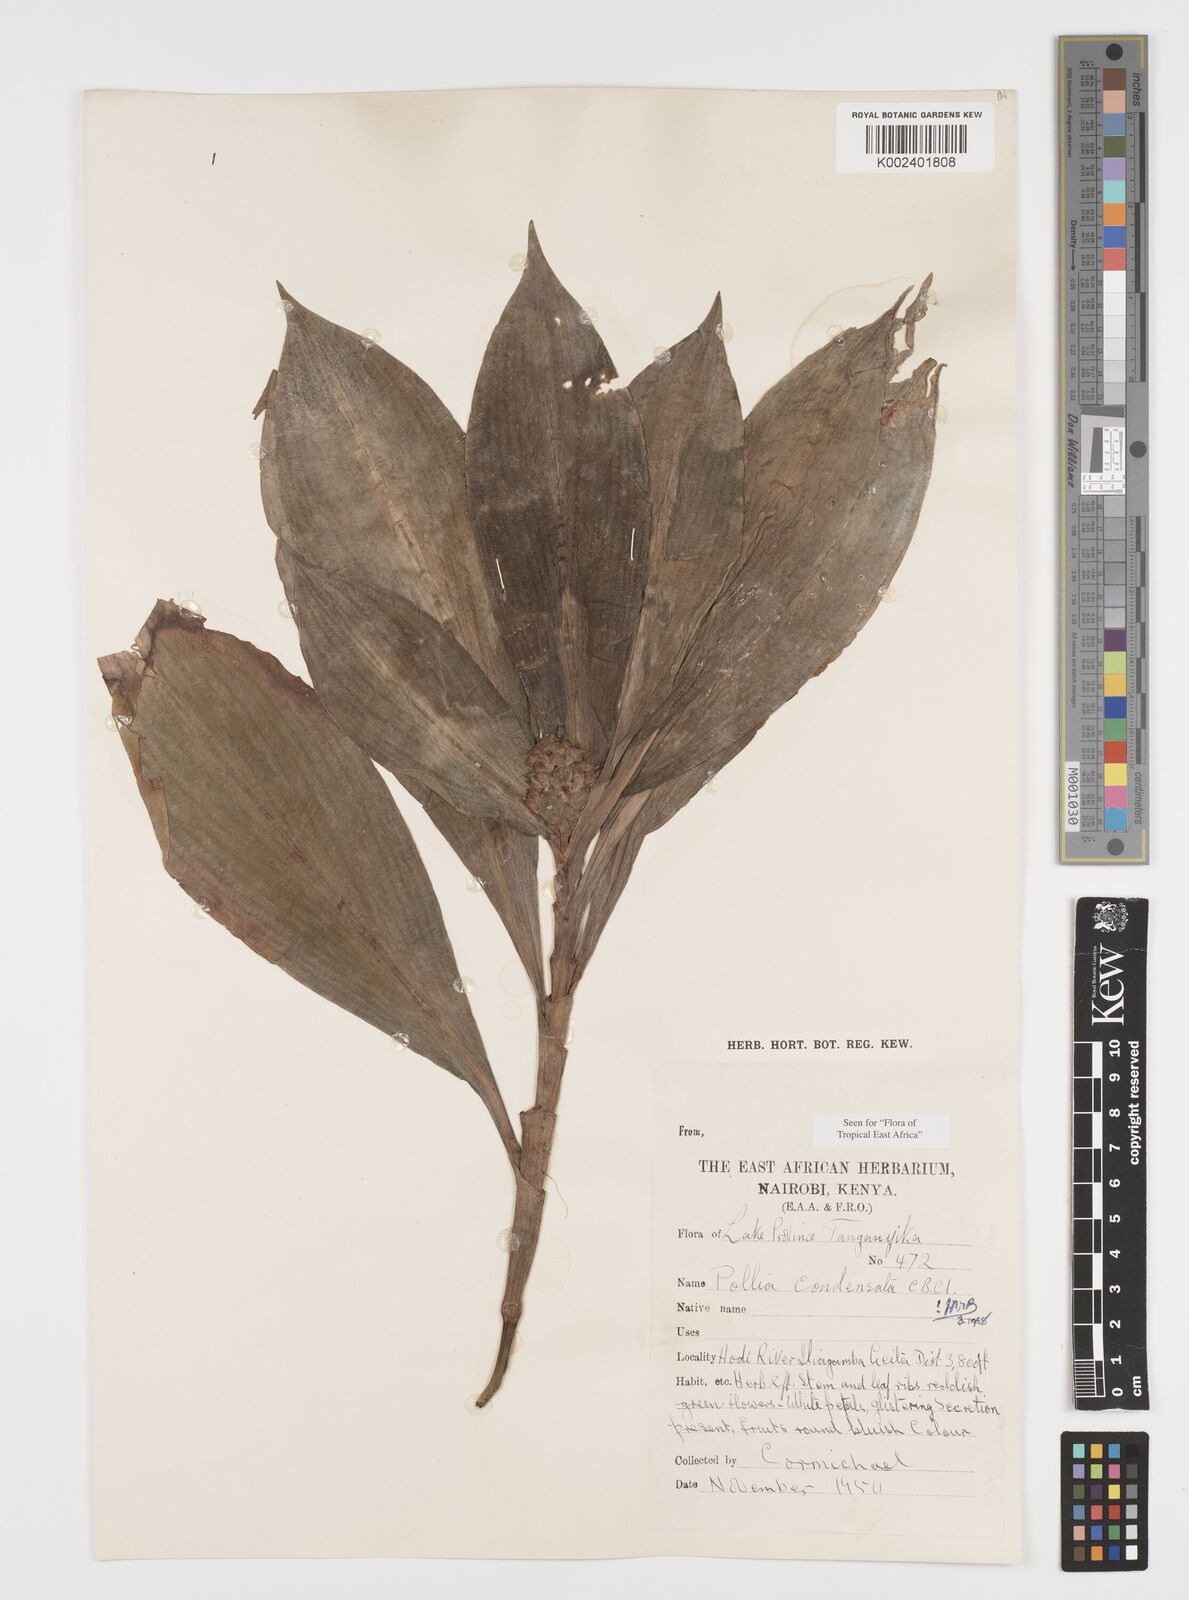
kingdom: Plantae
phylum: Tracheophyta
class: Liliopsida
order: Commelinales
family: Commelinaceae
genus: Pollia
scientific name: Pollia condensata
